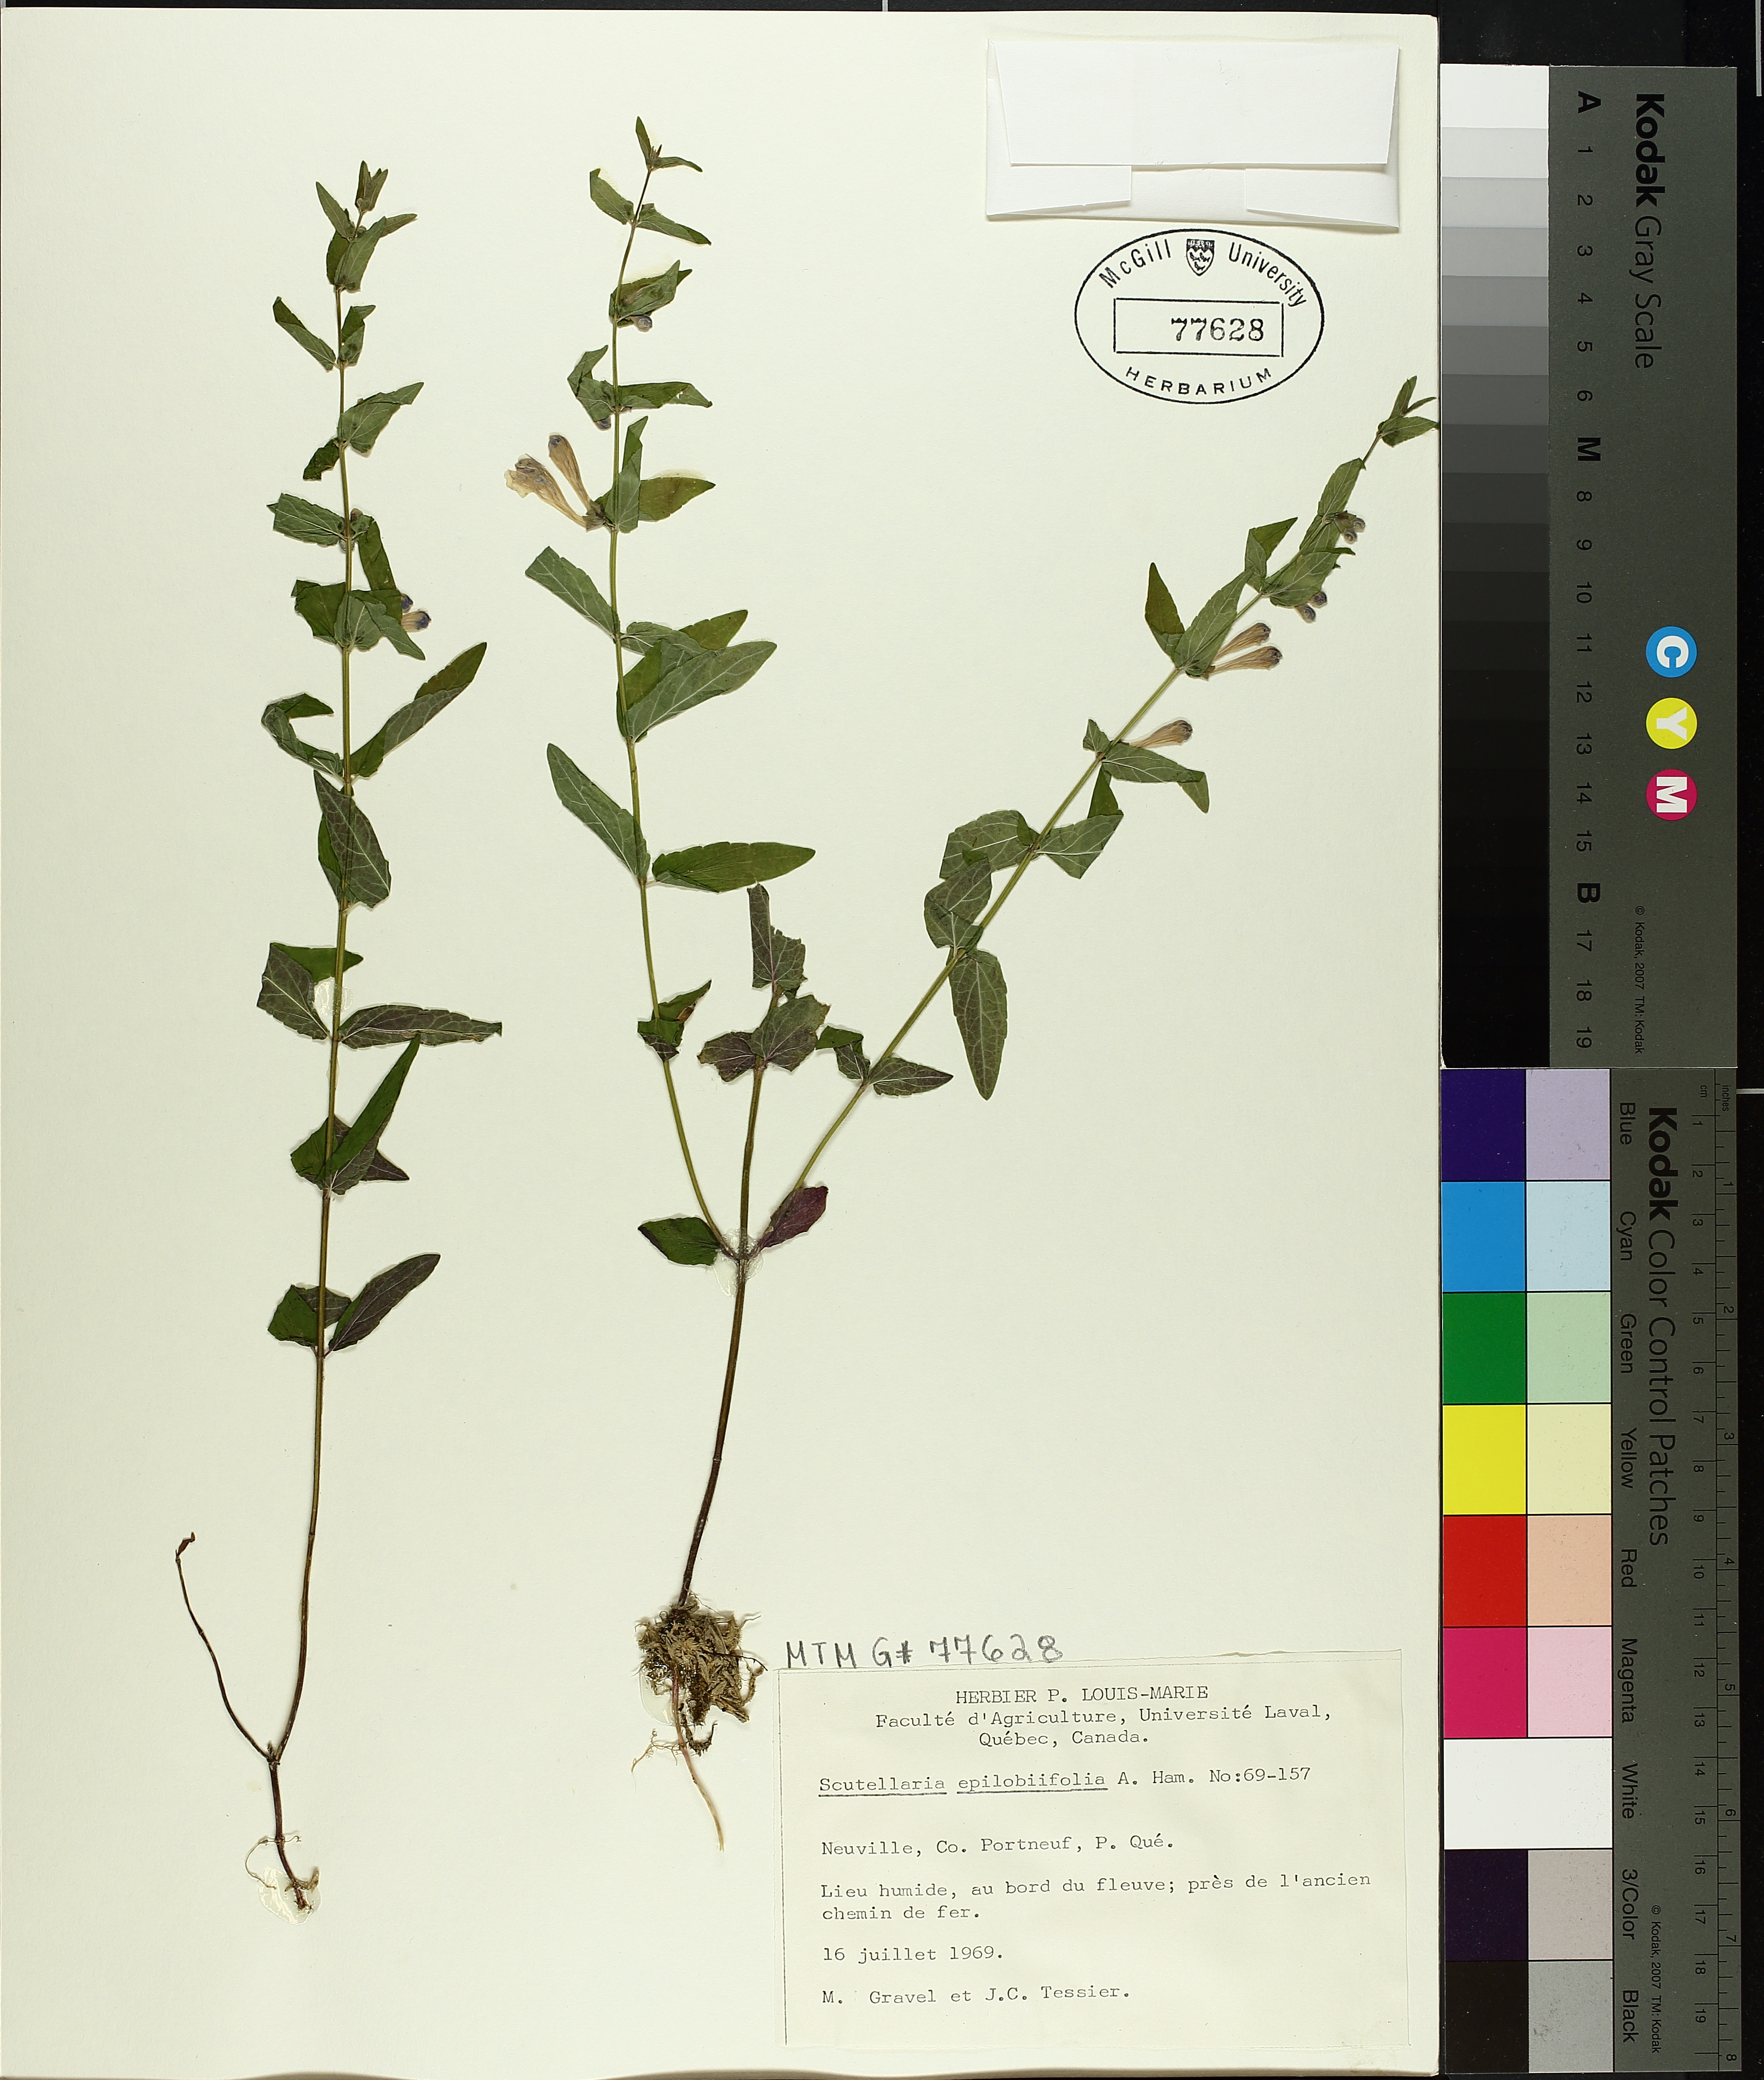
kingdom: Plantae
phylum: Tracheophyta
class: Magnoliopsida
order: Lamiales
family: Lamiaceae
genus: Scutellaria
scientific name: Scutellaria galericulata
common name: Skullcap
